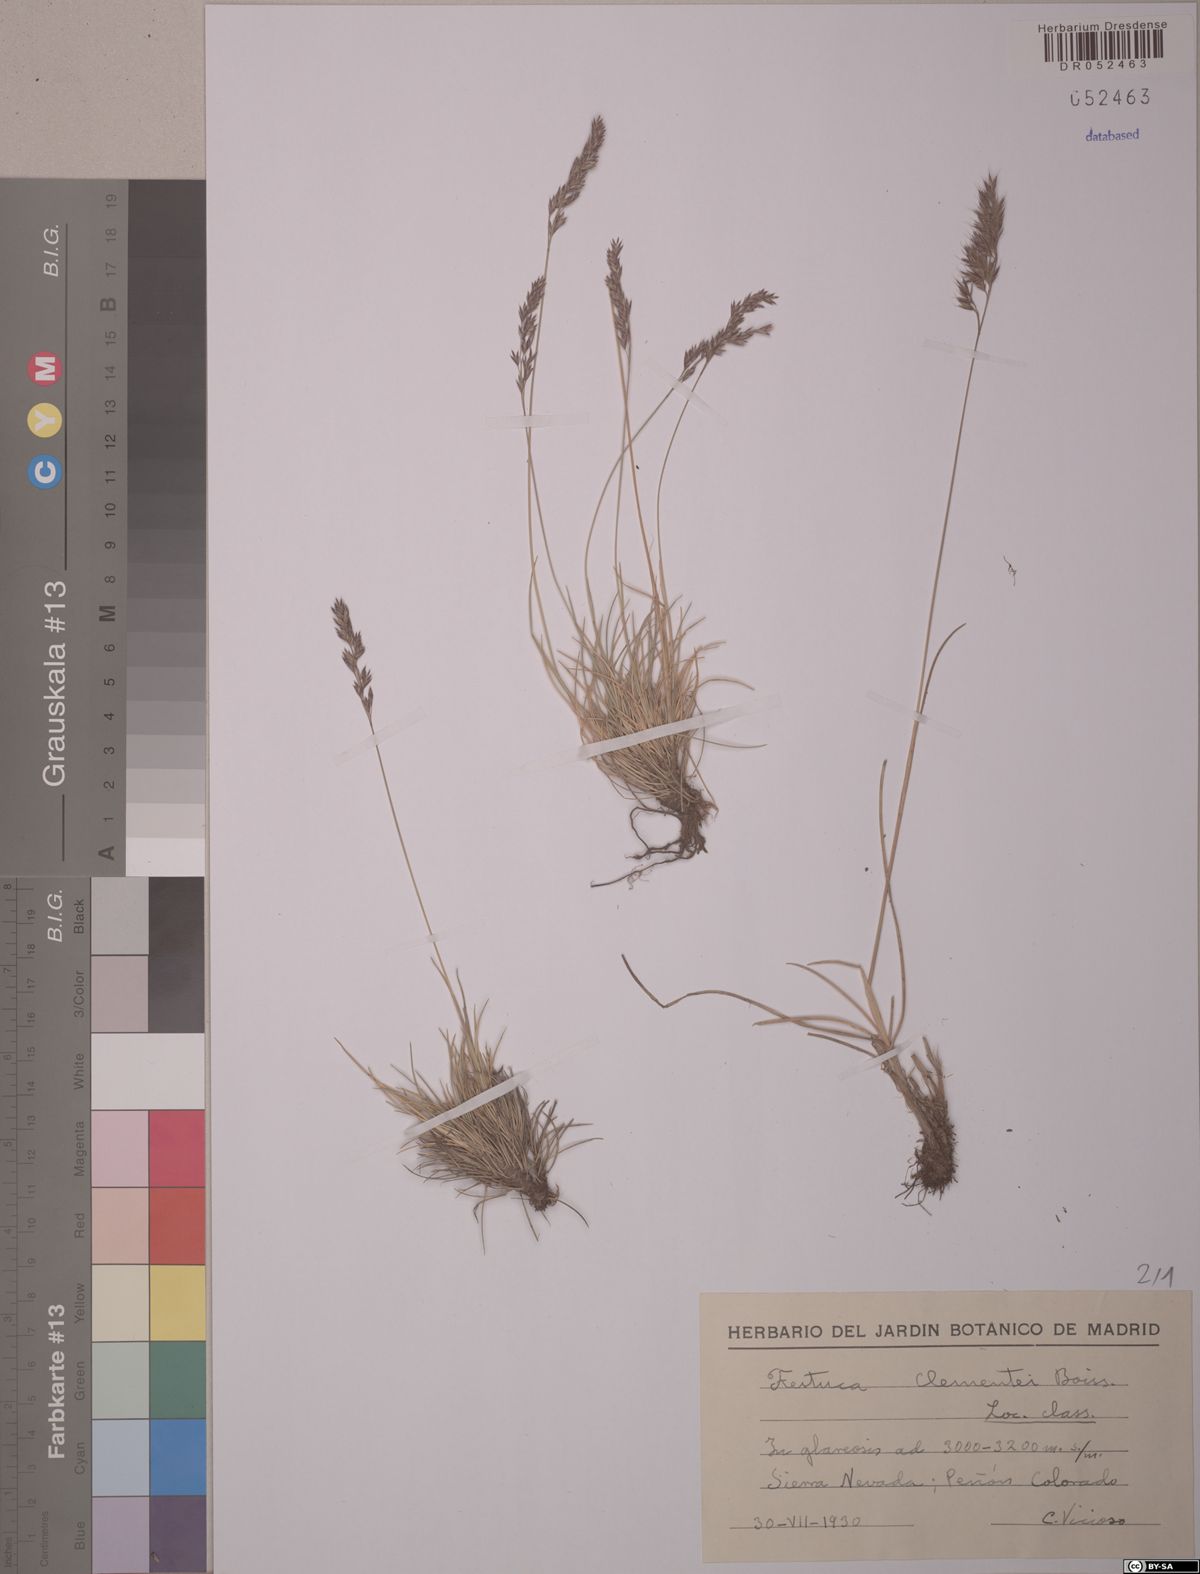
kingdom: Plantae
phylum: Tracheophyta
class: Liliopsida
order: Poales
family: Poaceae
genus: Festuca
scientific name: Festuca clementei
